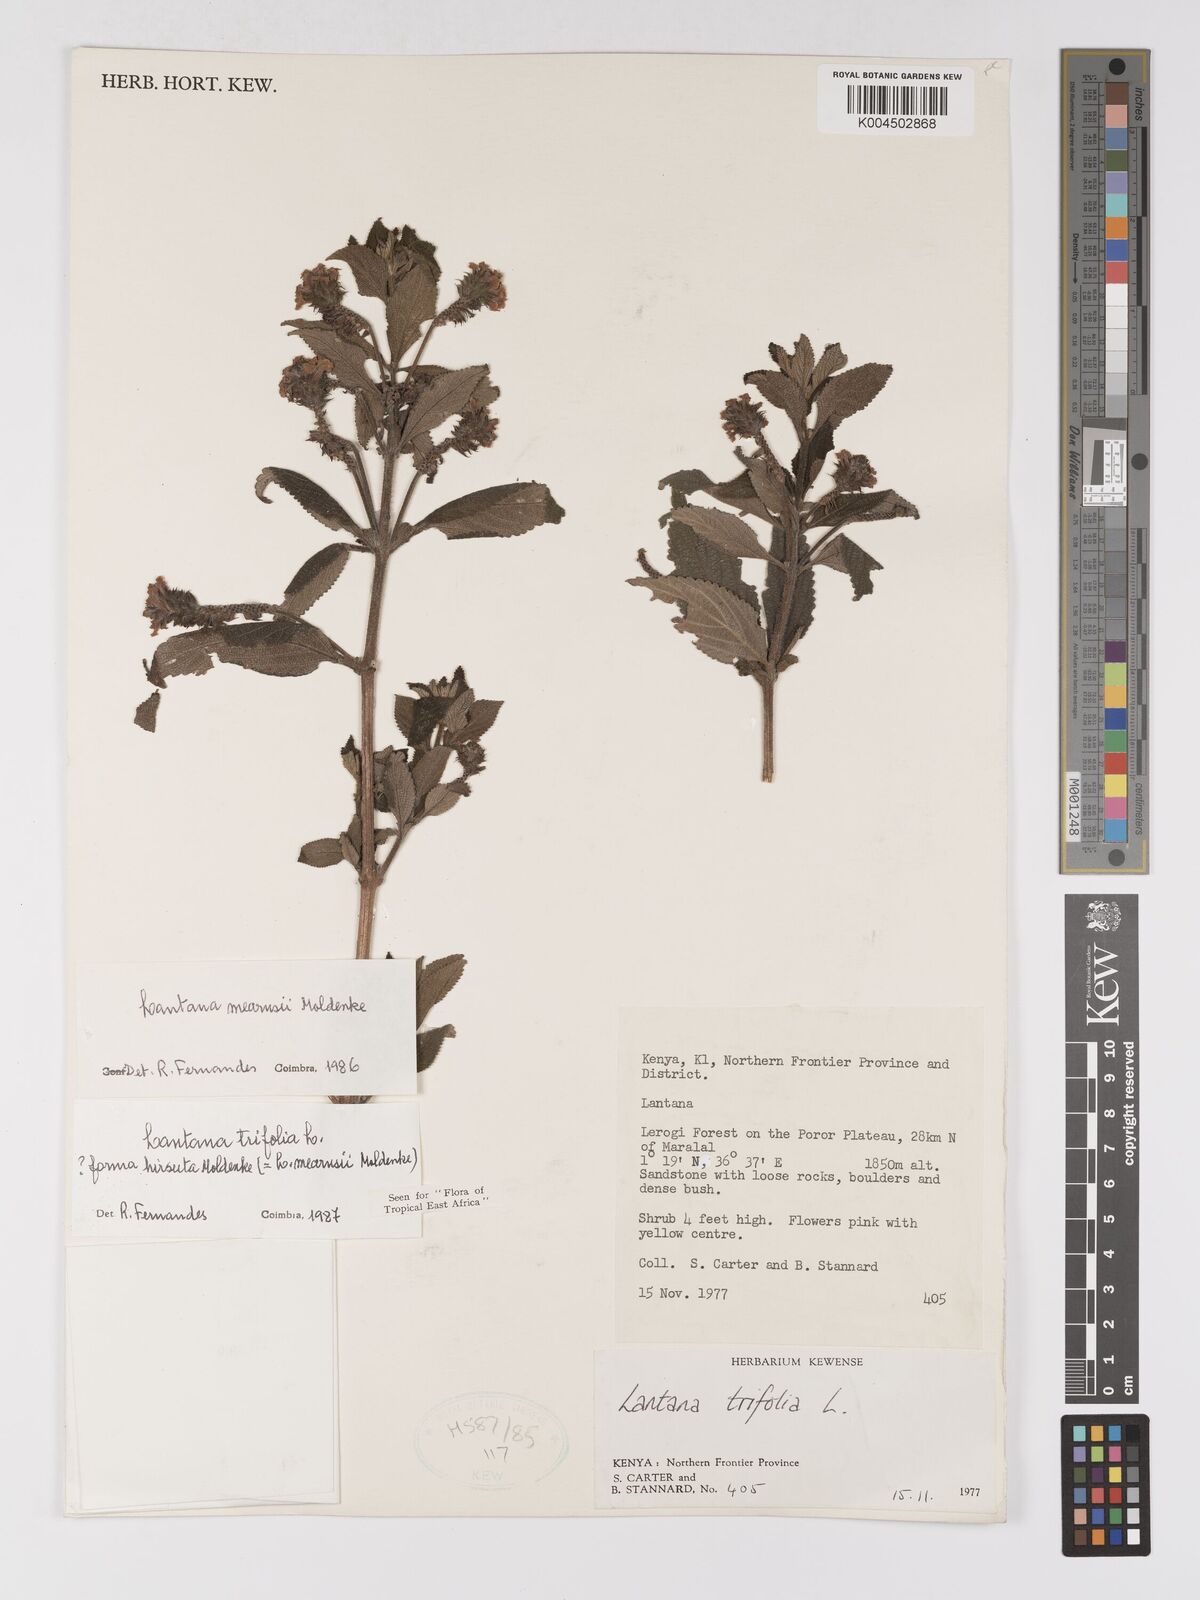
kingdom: Plantae
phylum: Tracheophyta
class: Magnoliopsida
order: Lamiales
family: Verbenaceae
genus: Lantana
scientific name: Lantana trifolia
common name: Sweet-sage
